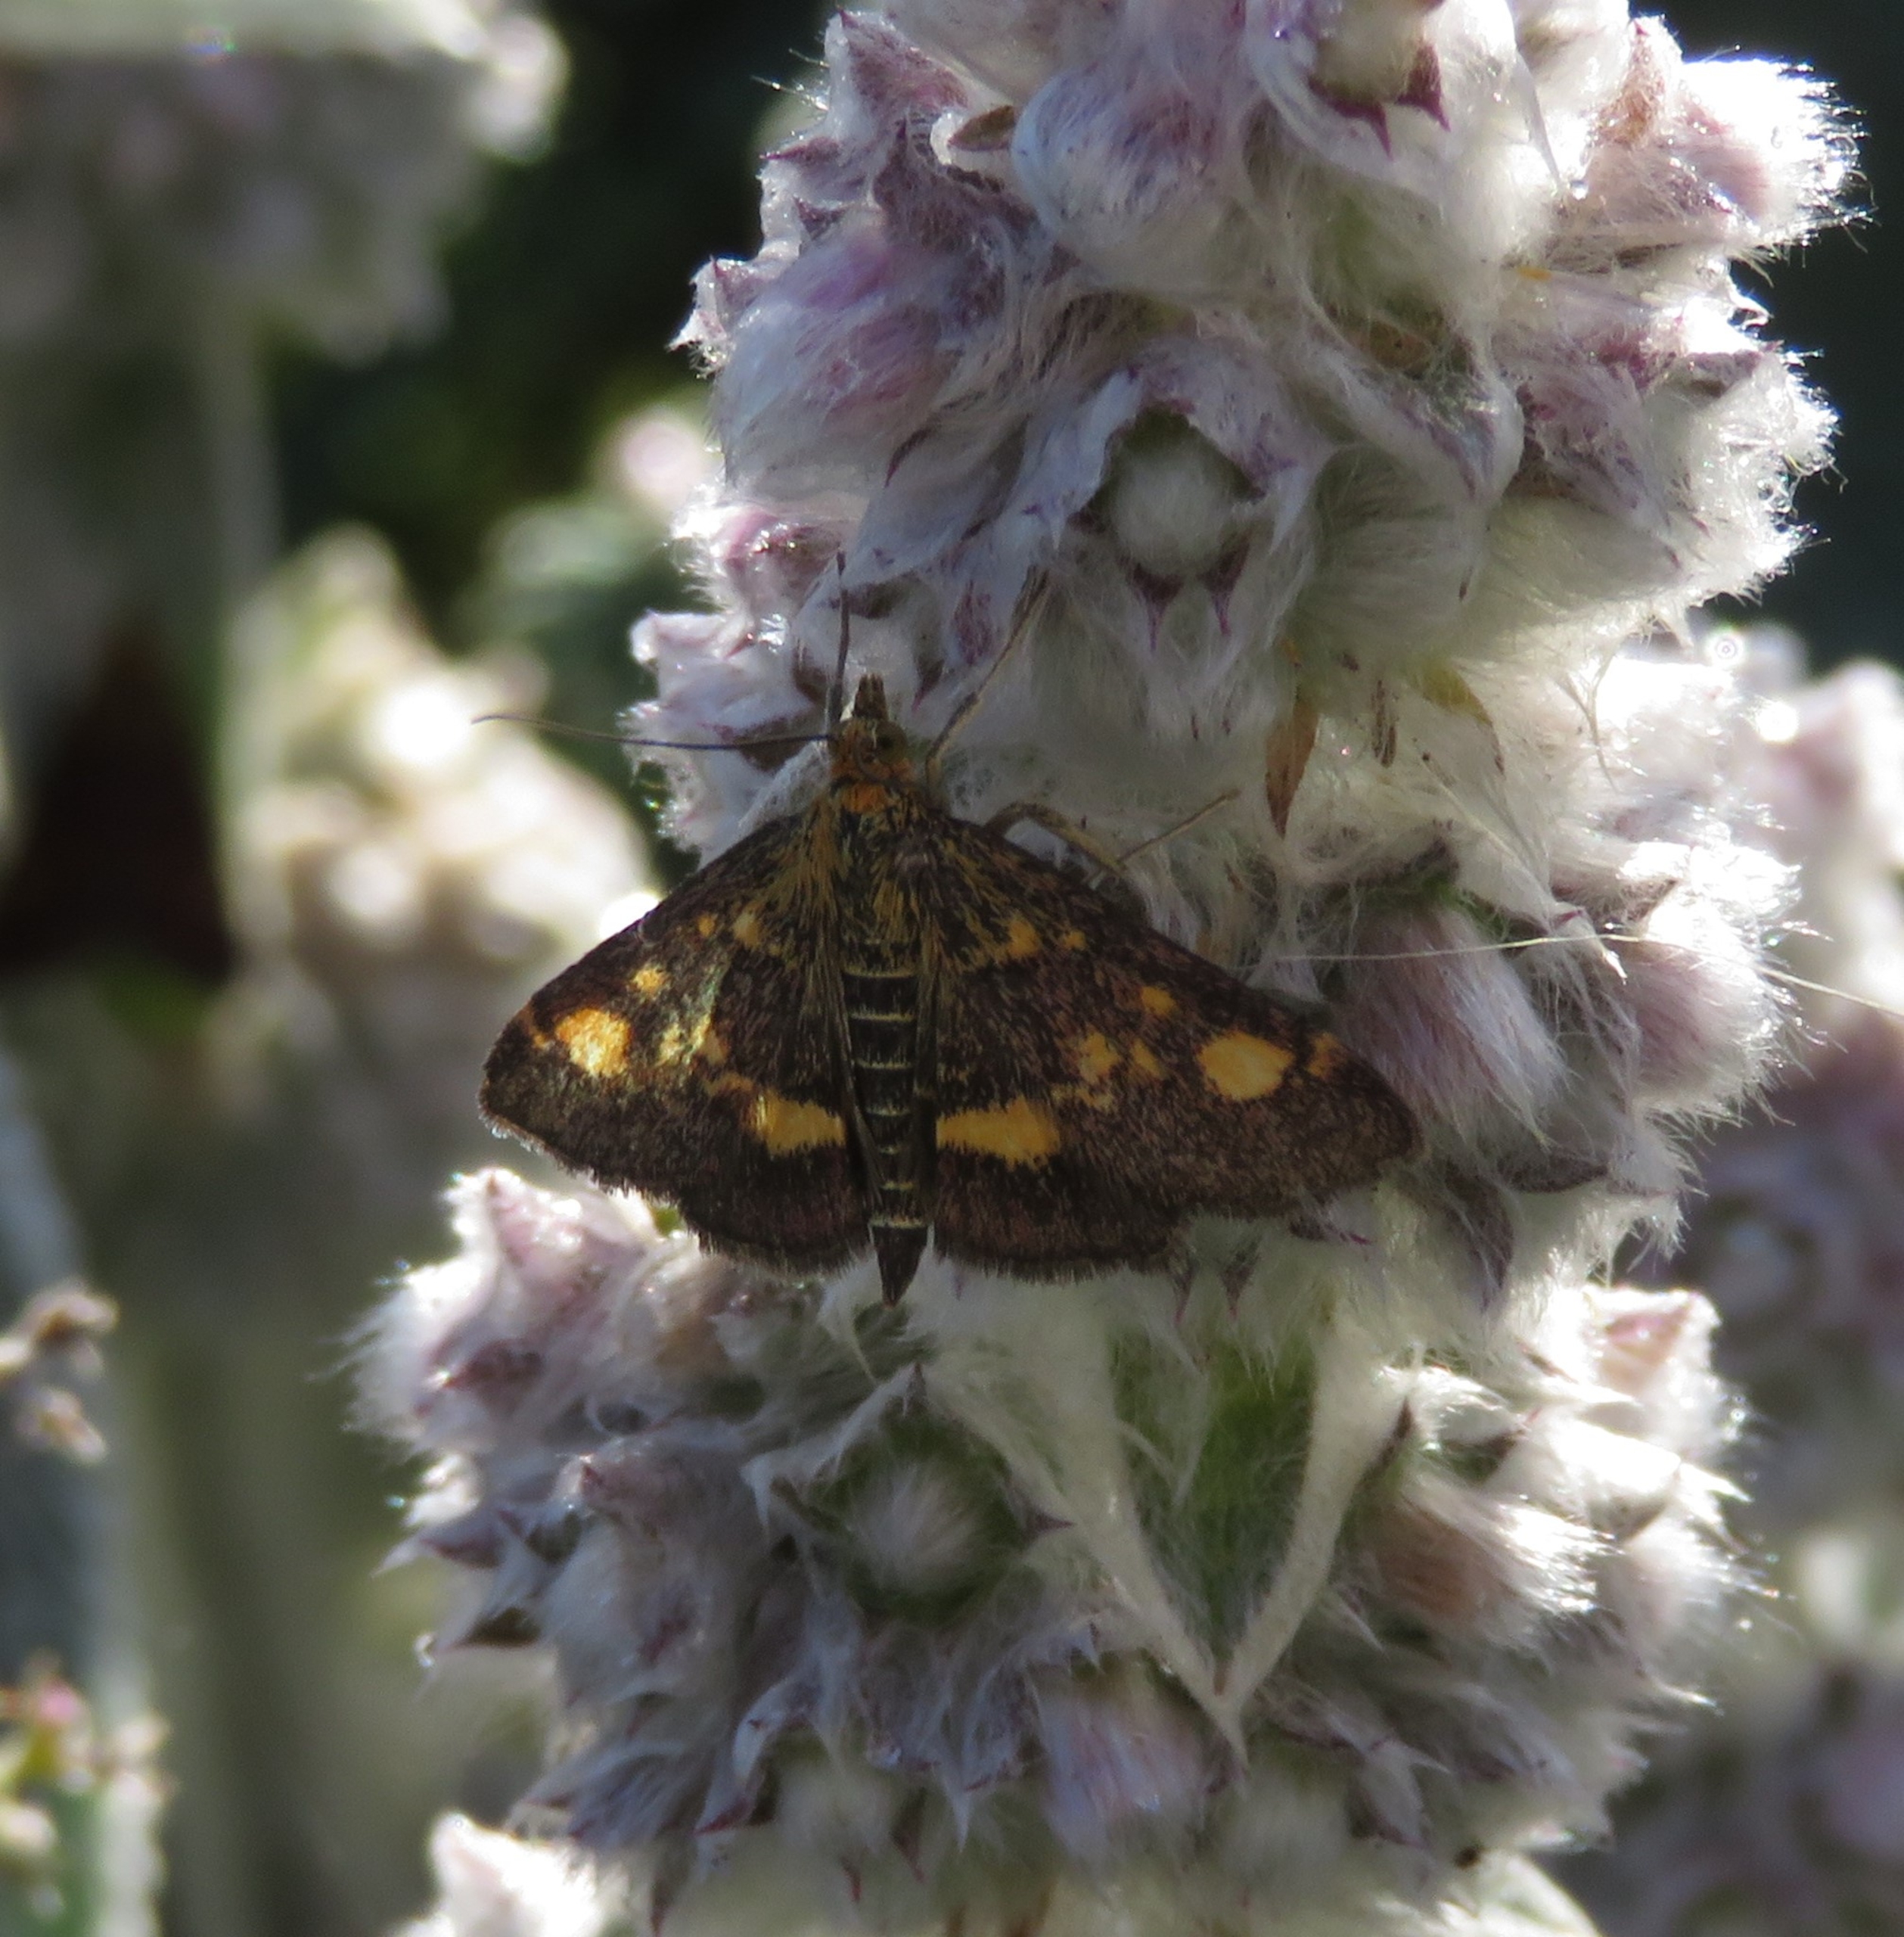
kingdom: Animalia
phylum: Arthropoda
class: Insecta
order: Lepidoptera
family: Crambidae
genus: Pyrausta
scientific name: Pyrausta aurata
